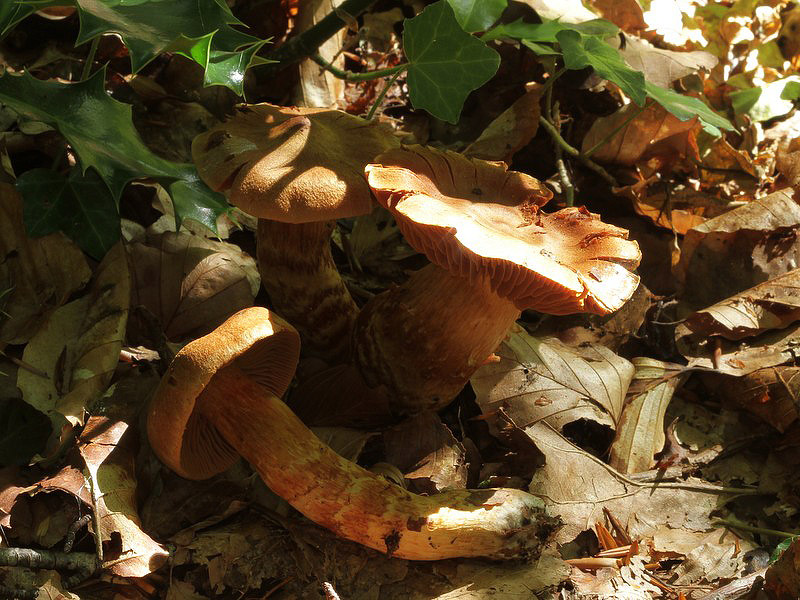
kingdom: Fungi
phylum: Basidiomycota
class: Agaricomycetes
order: Agaricales
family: Cortinariaceae
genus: Cortinarius
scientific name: Cortinarius rubellus
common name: puklet gift-slørhat
